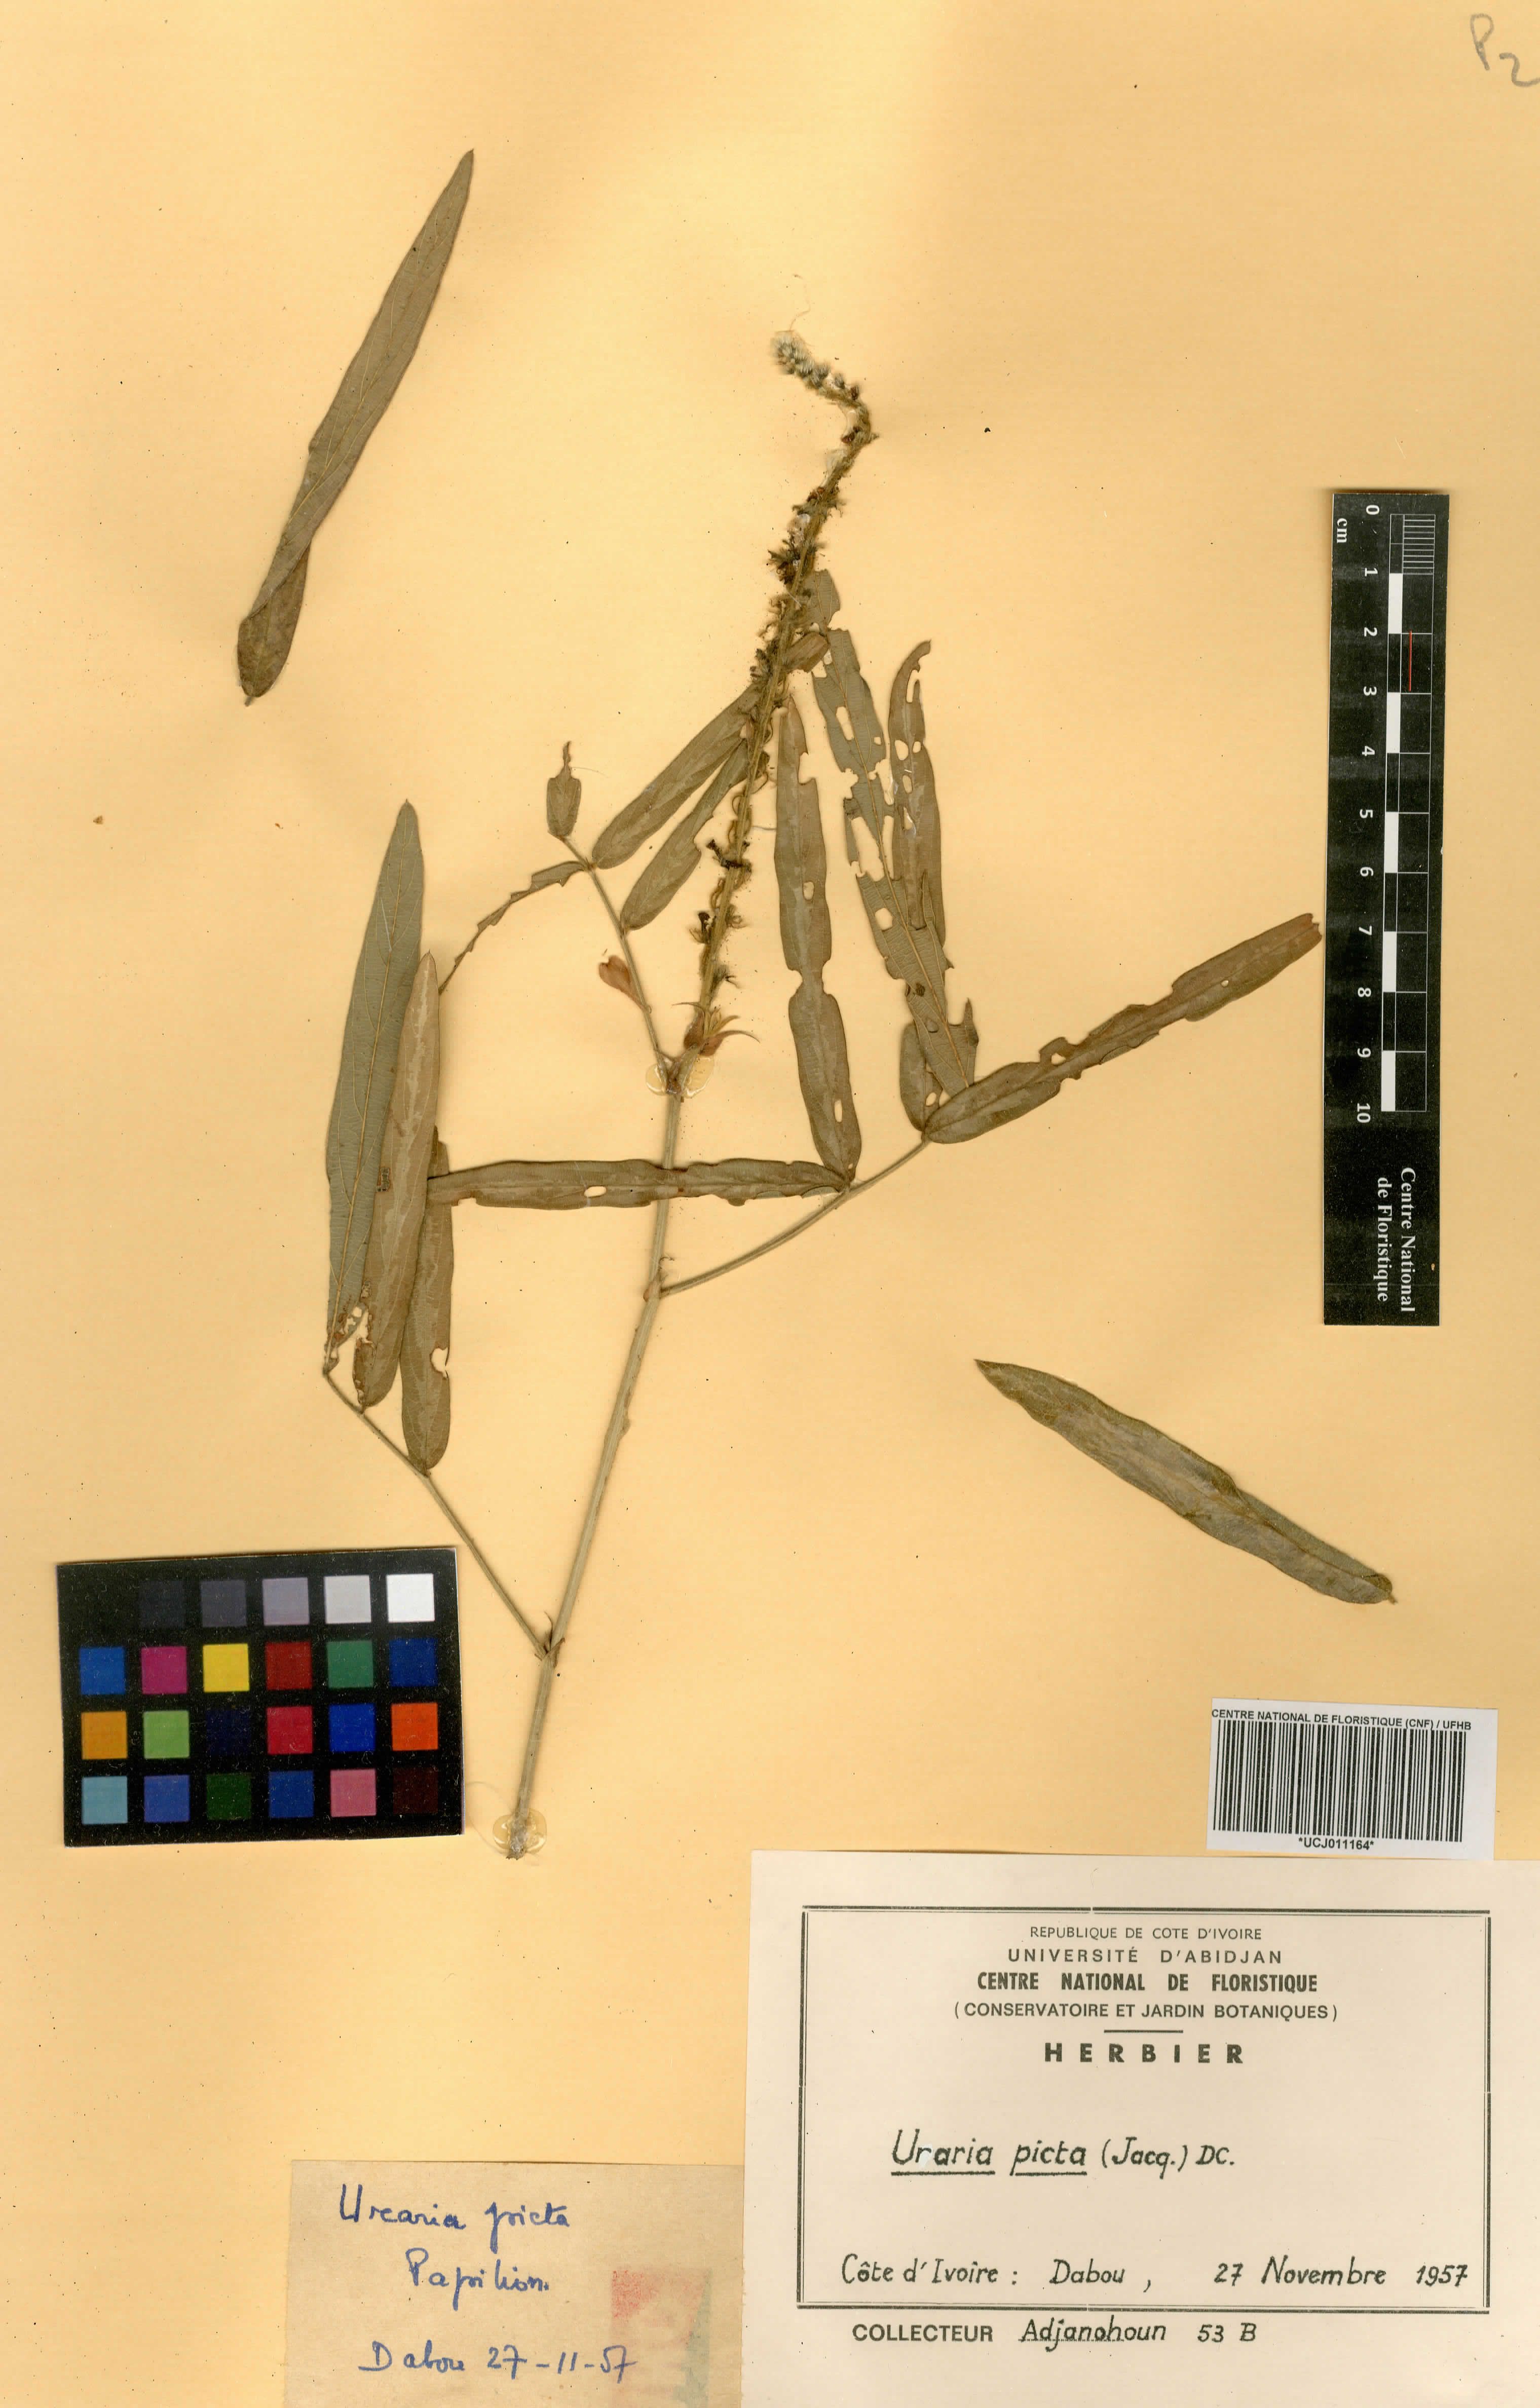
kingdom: Plantae
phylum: Tracheophyta
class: Magnoliopsida
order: Fabales
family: Fabaceae
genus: Uraria
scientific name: Uraria picta
